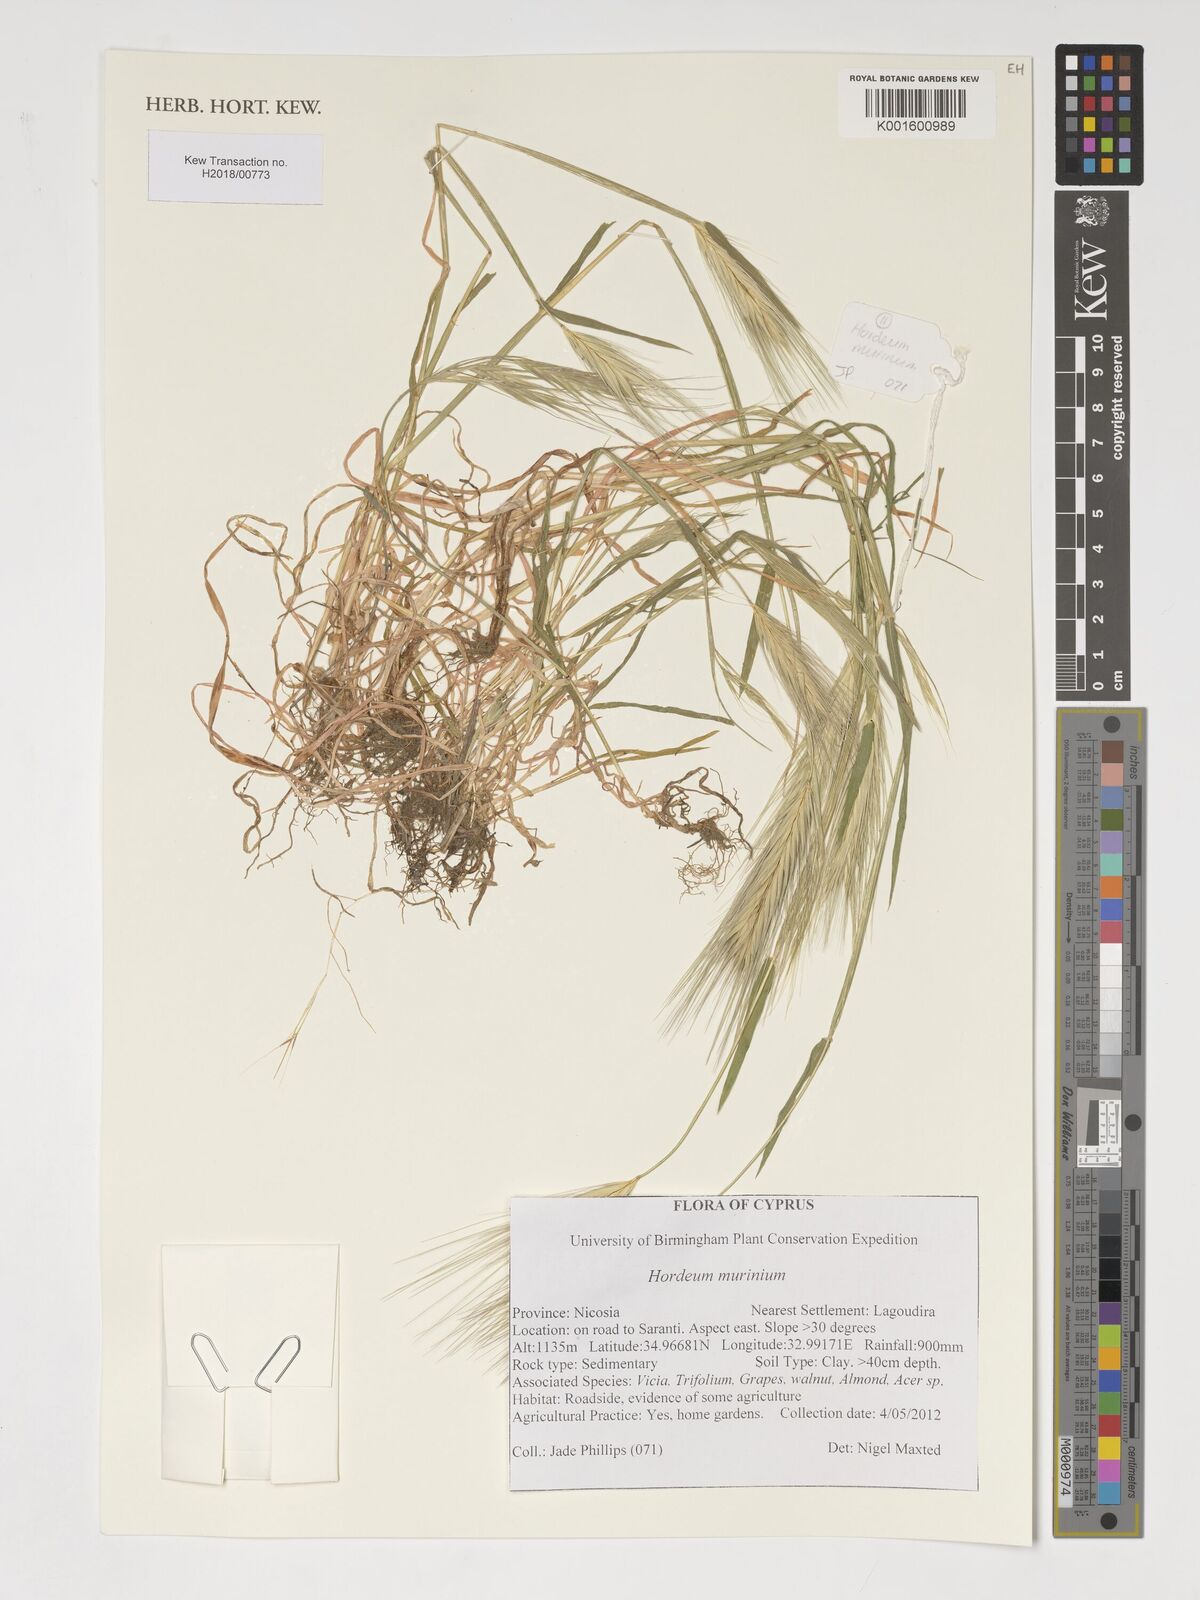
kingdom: Plantae
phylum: Tracheophyta
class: Liliopsida
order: Poales
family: Poaceae
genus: Hordeum
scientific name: Hordeum murinum
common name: Wall barley
